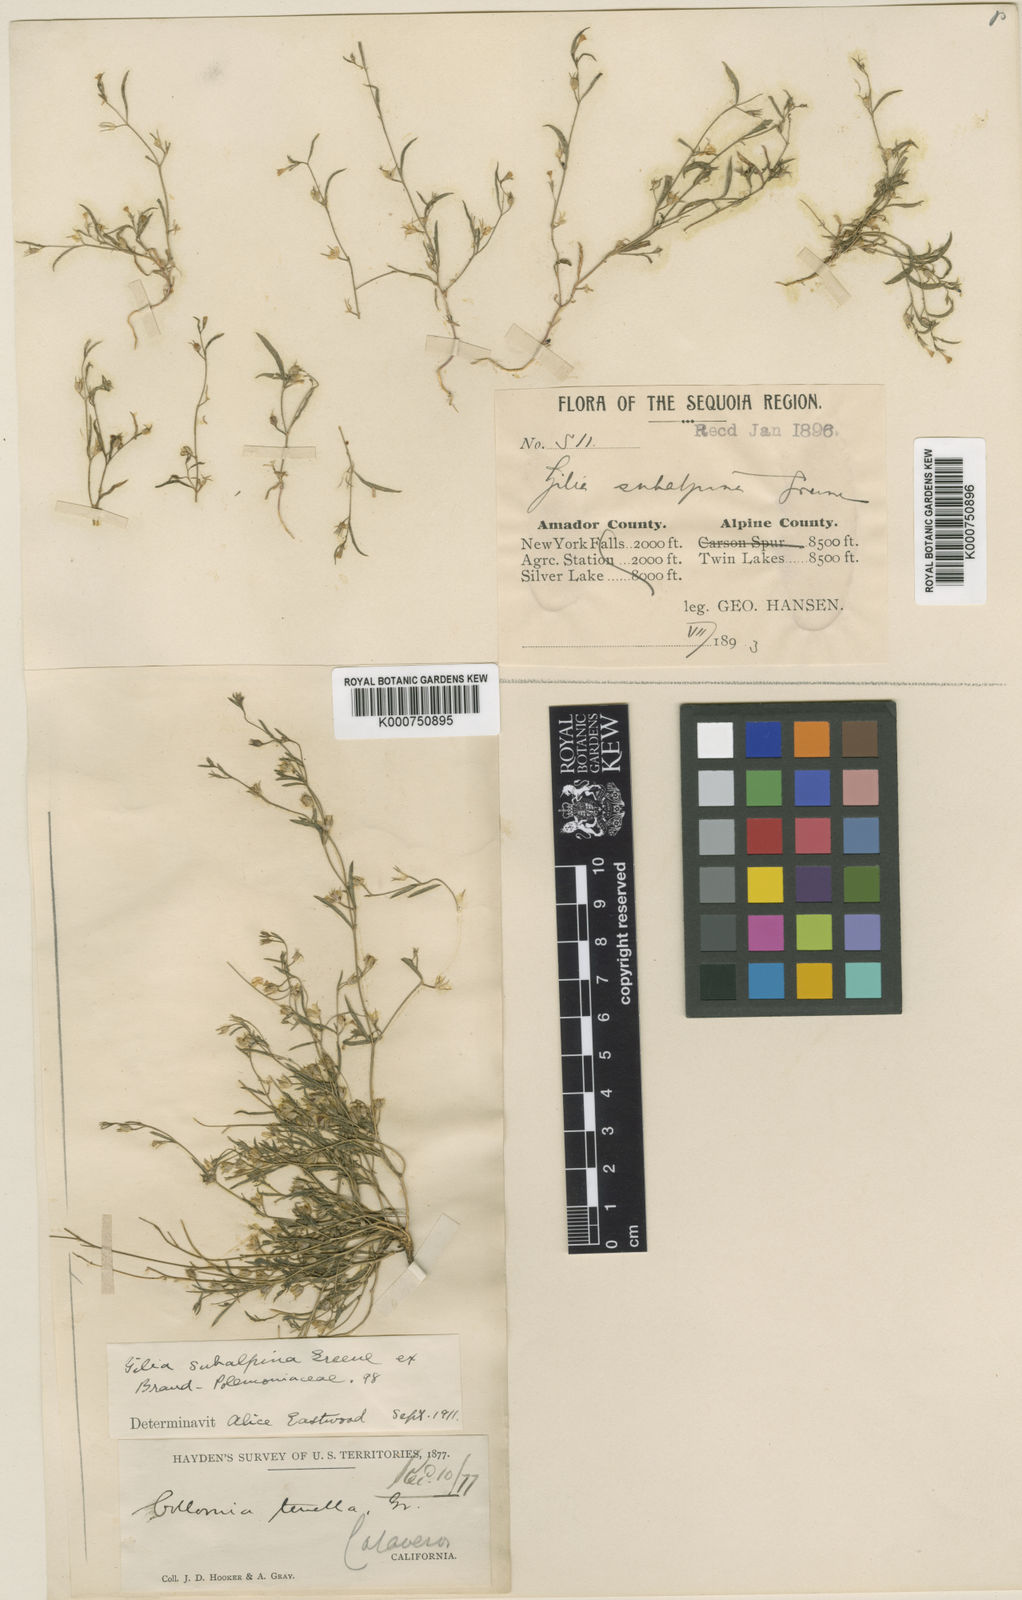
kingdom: Plantae
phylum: Tracheophyta
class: Magnoliopsida
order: Ericales
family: Polemoniaceae
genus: Gilia
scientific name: Gilia
